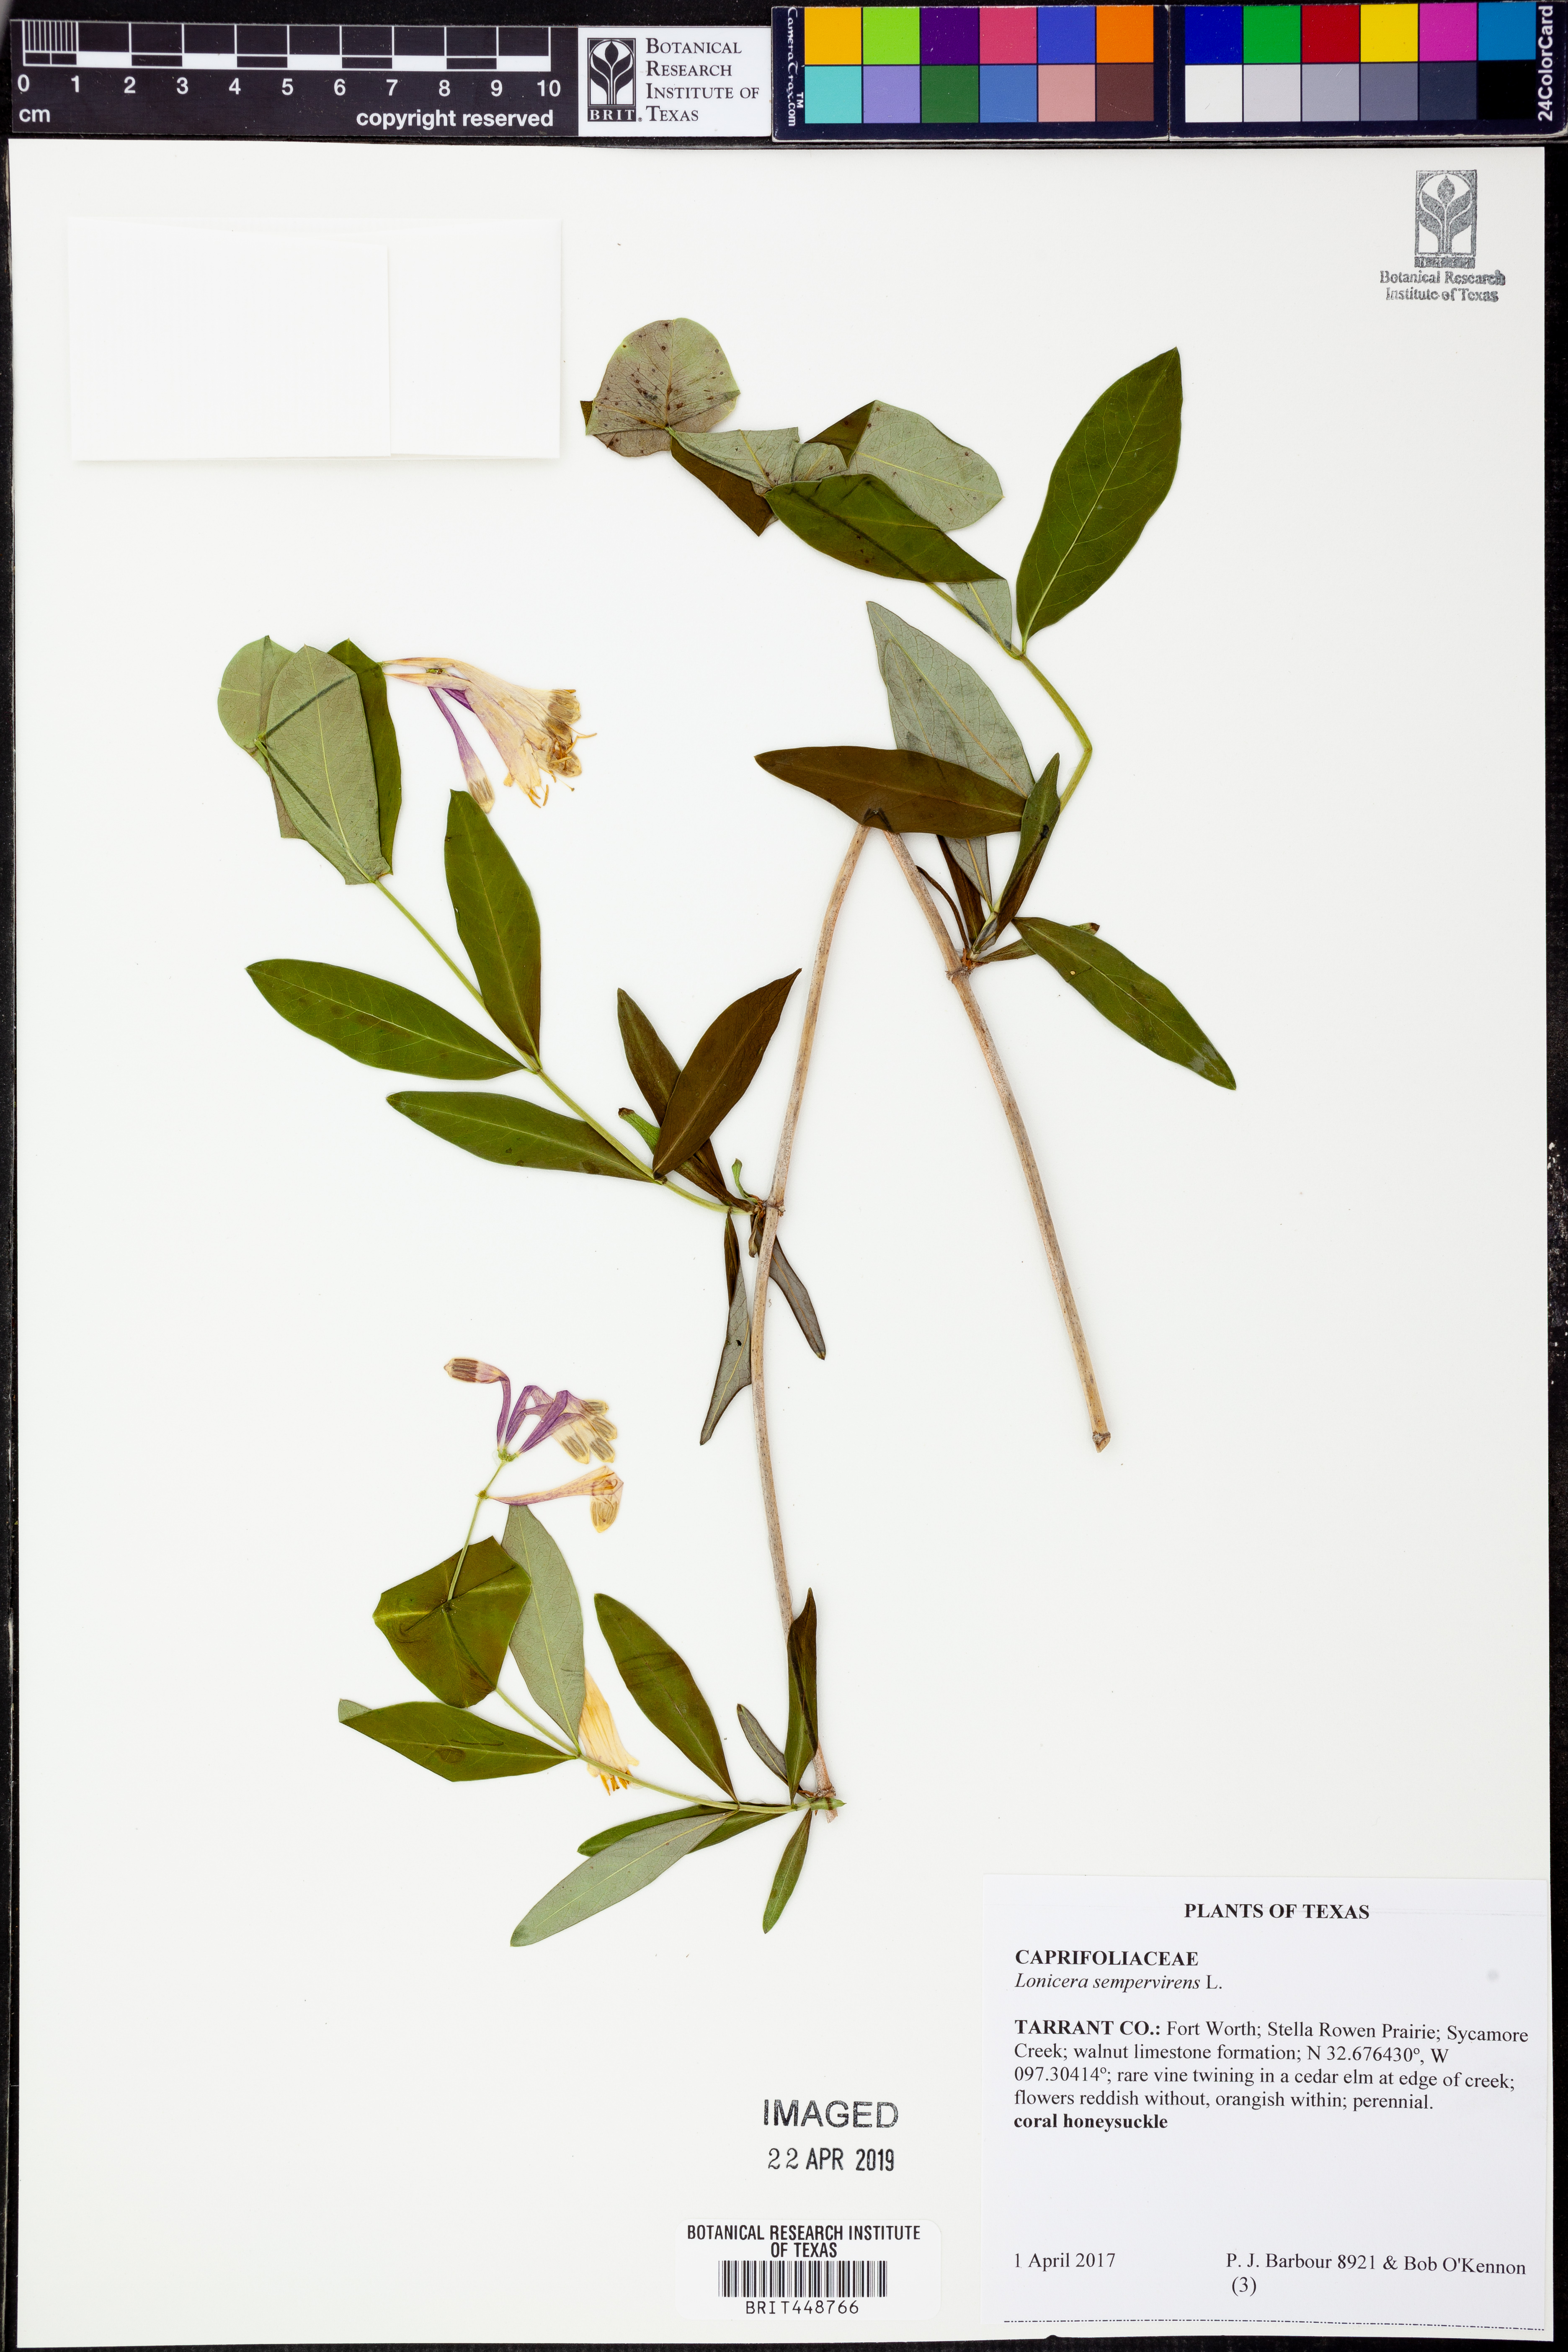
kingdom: Plantae
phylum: Tracheophyta
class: Magnoliopsida
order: Dipsacales
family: Caprifoliaceae
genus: Lonicera
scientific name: Lonicera sempervirens
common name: Coral honeysuckle
